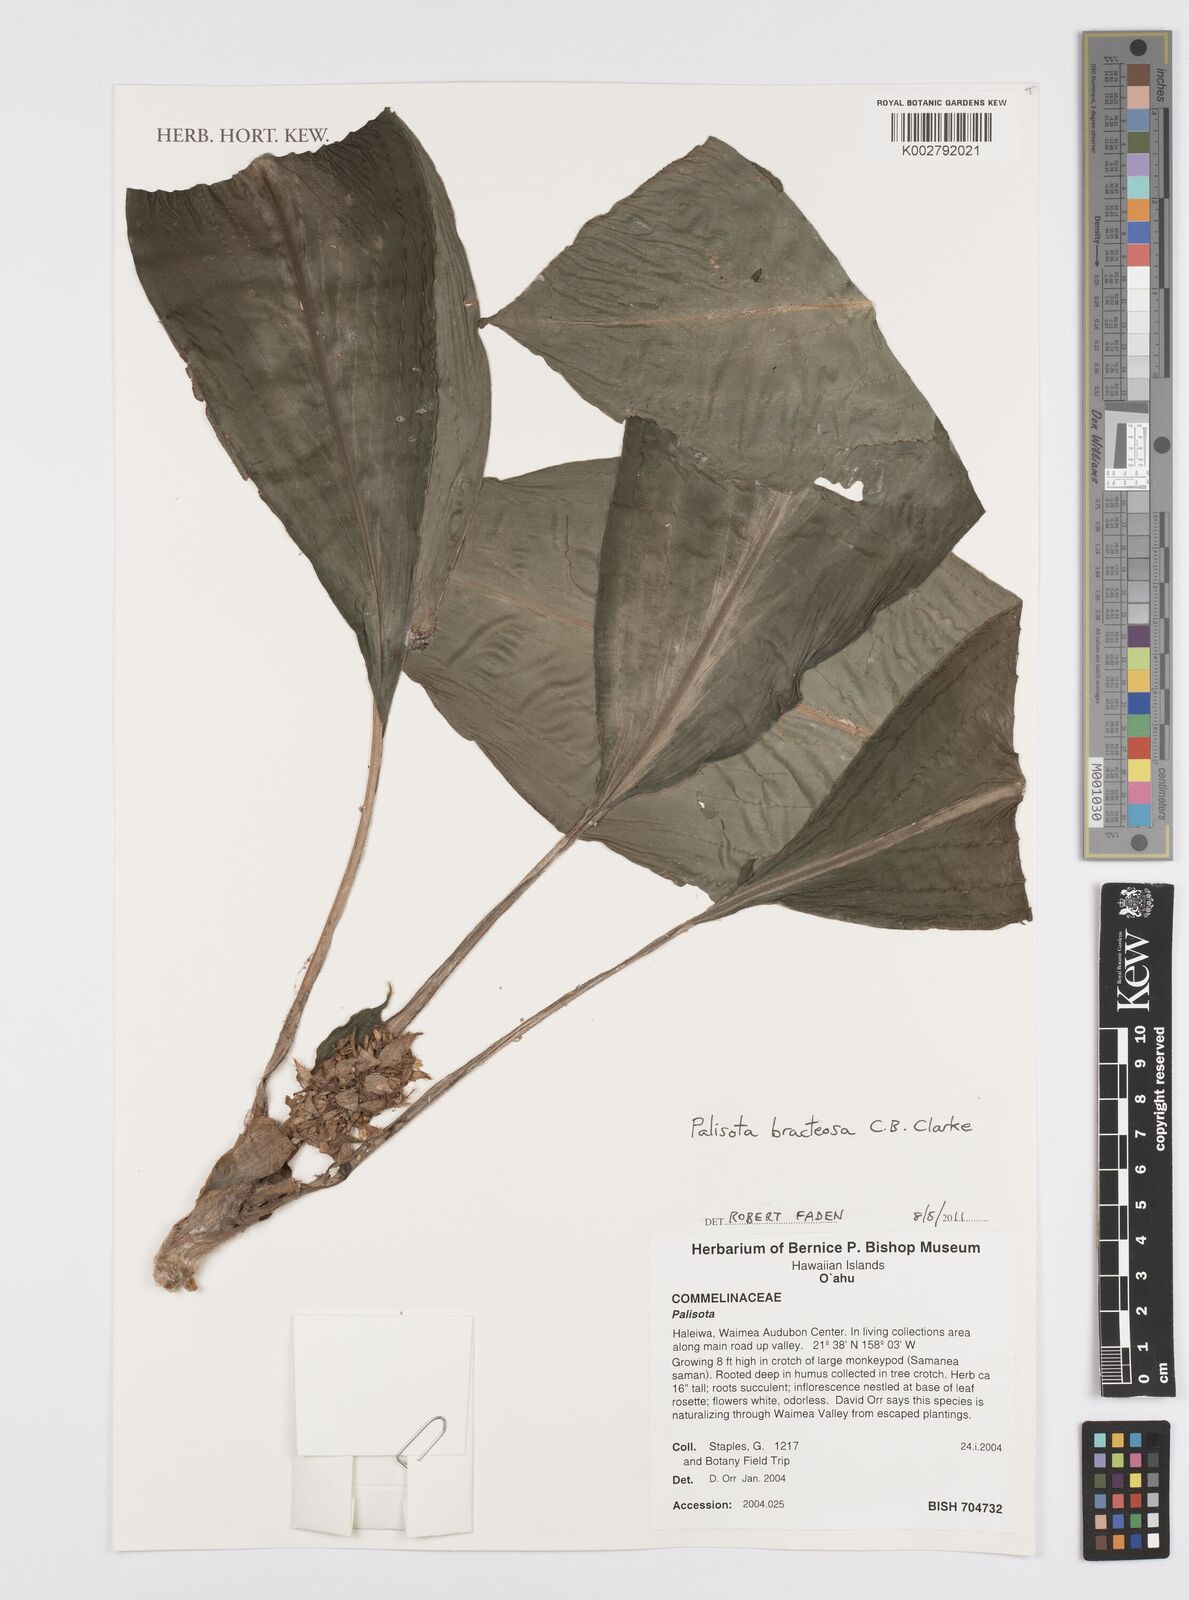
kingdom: Plantae
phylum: Tracheophyta
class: Liliopsida
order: Commelinales
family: Commelinaceae
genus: Palisota
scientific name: Palisota bracteosa
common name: Palisota
